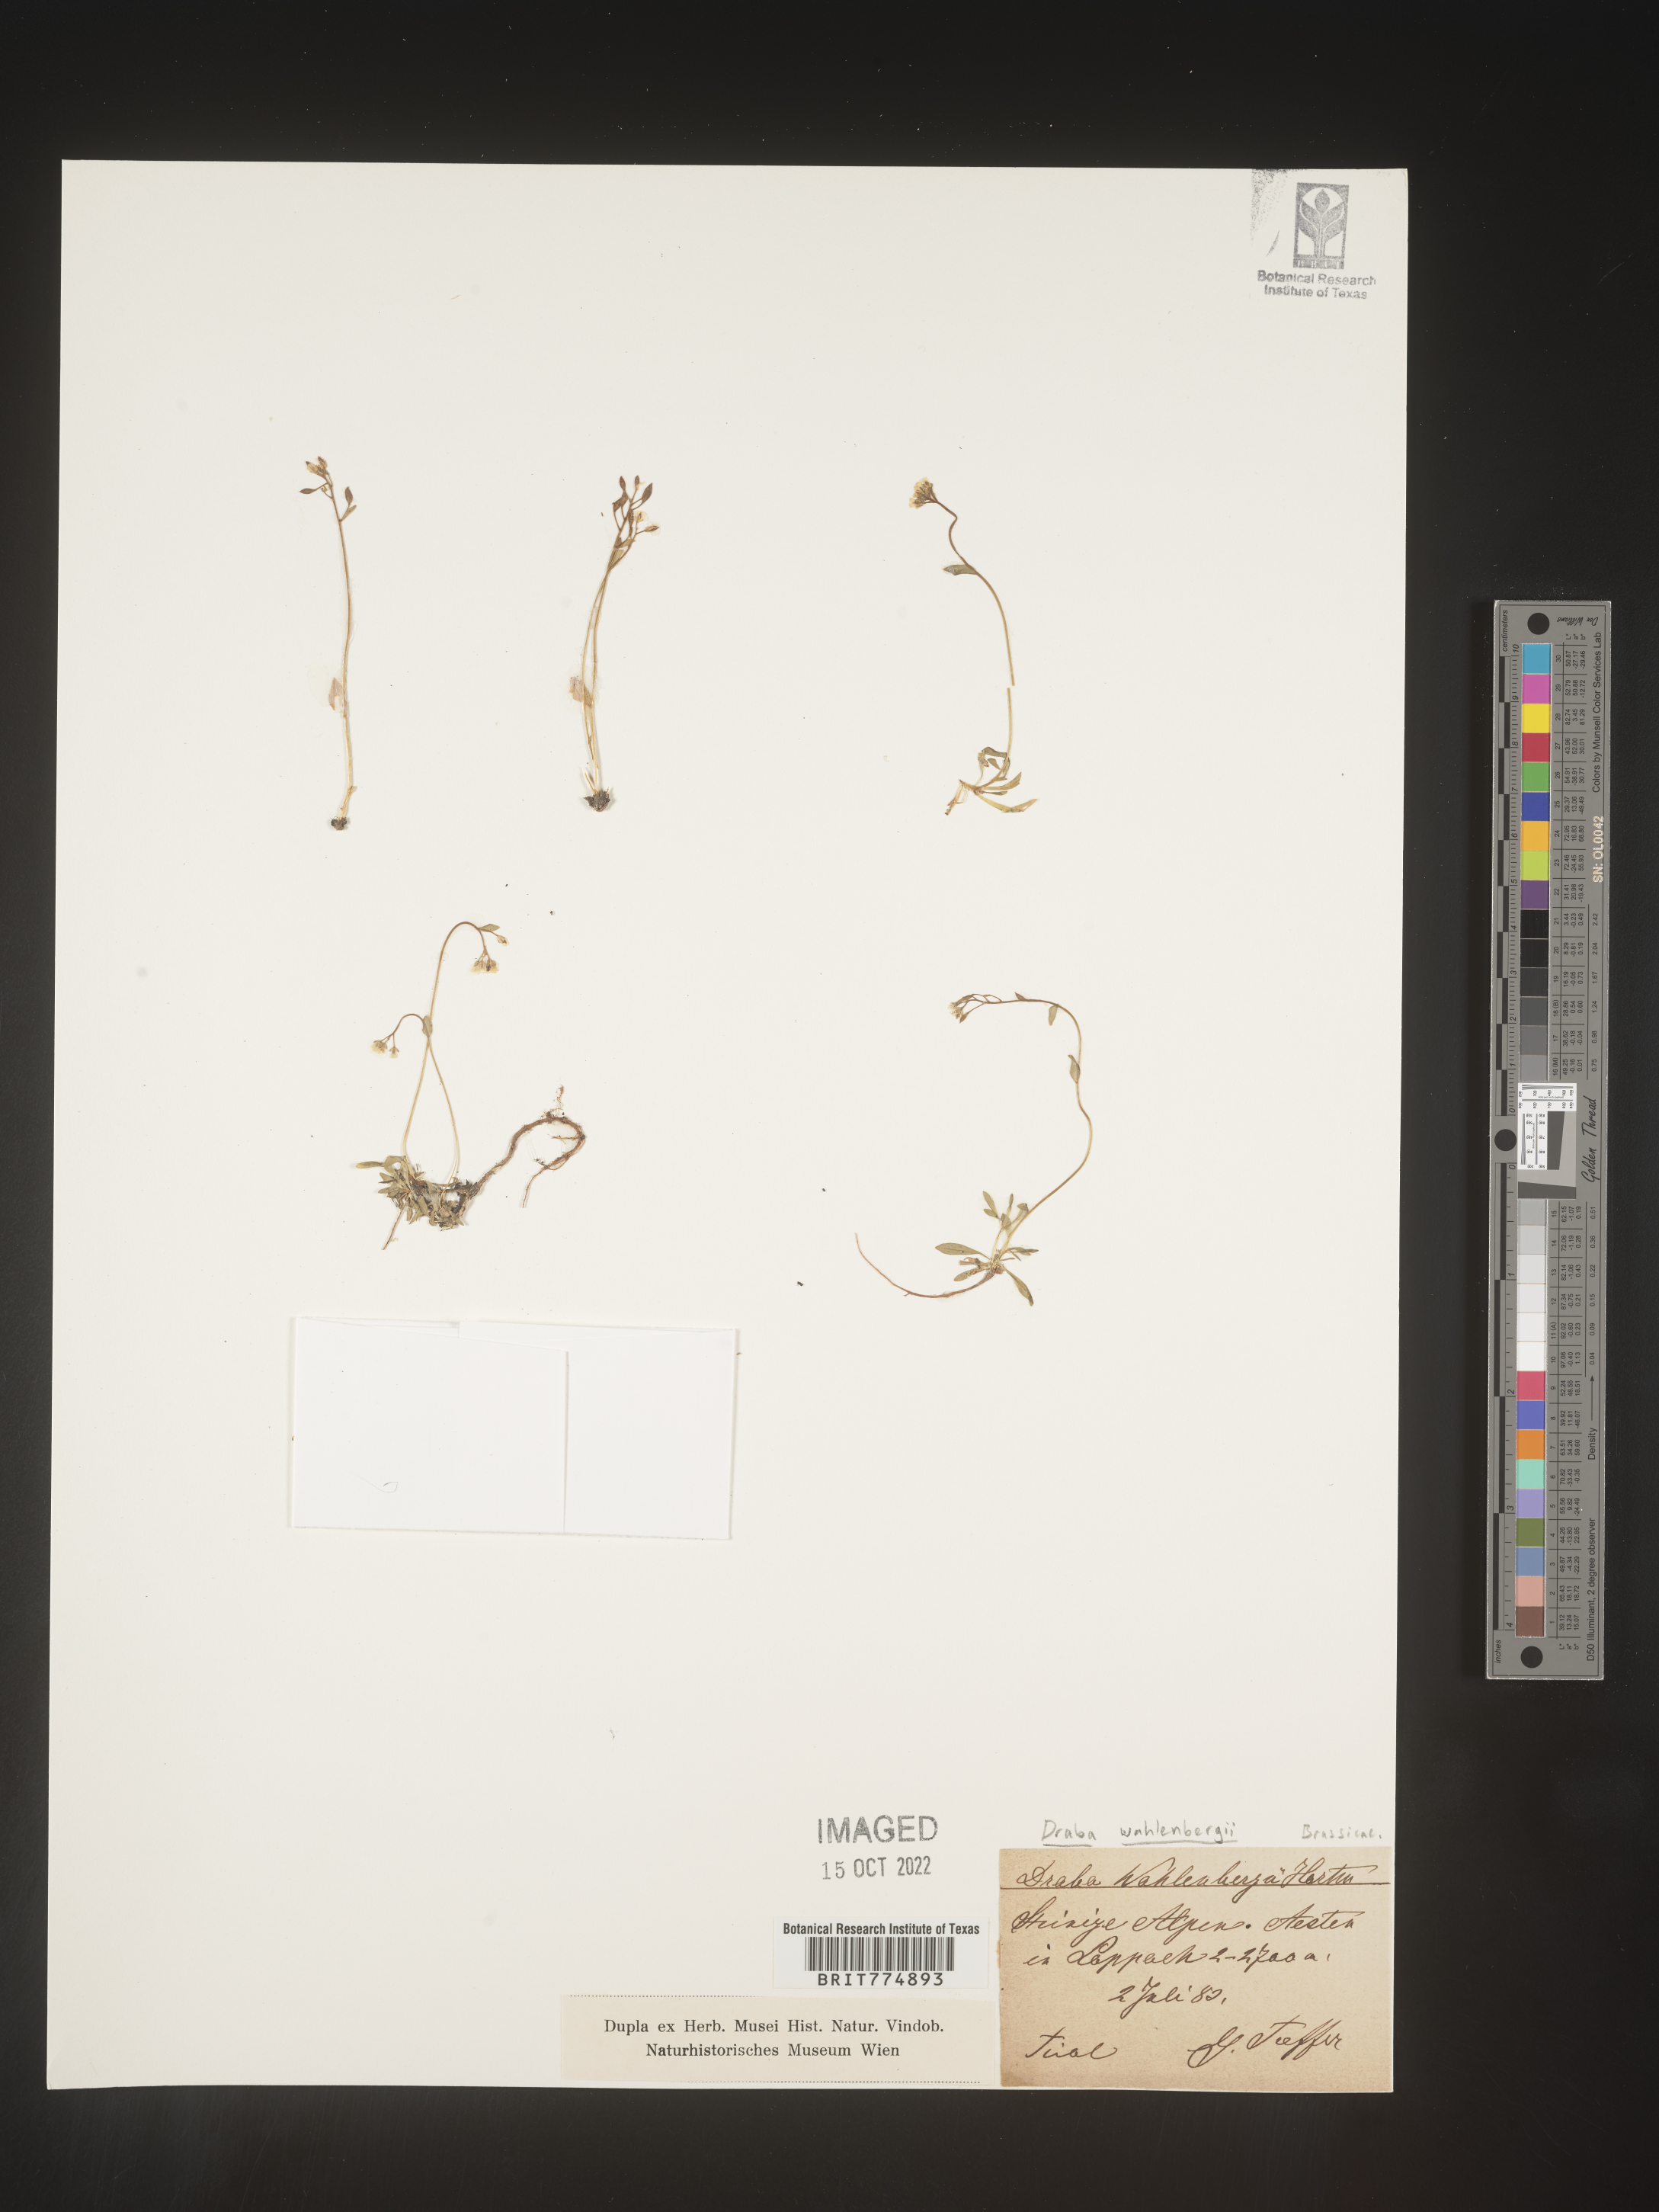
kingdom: Plantae
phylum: Tracheophyta
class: Magnoliopsida
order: Brassicales
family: Brassicaceae
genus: Draba
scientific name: Draba
